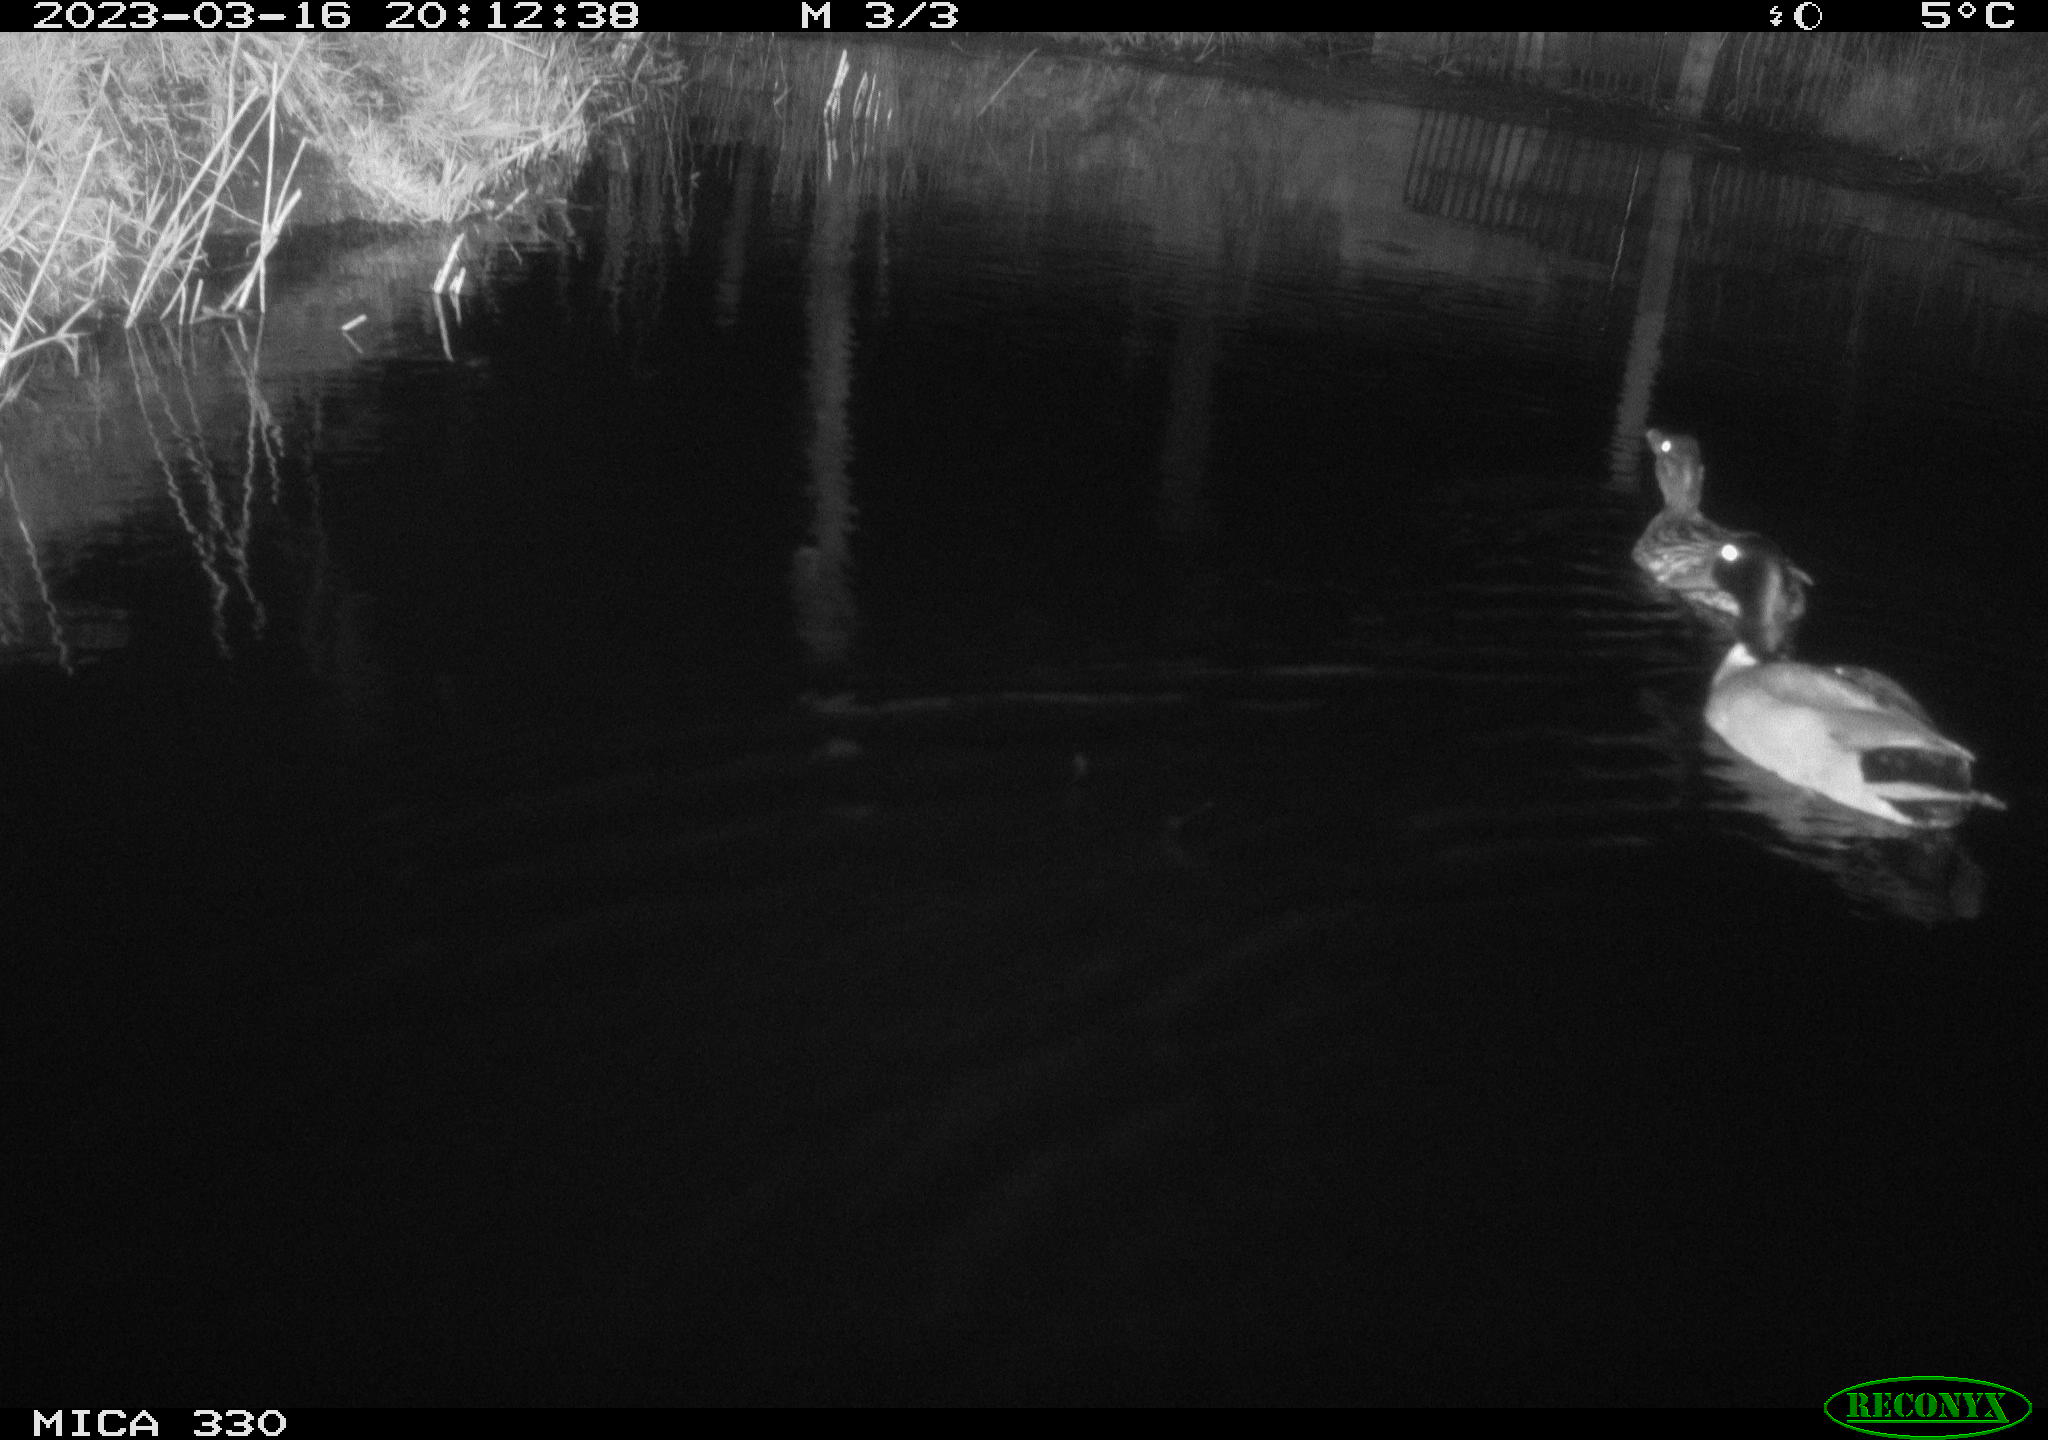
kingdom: Animalia
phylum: Chordata
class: Aves
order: Anseriformes
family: Anatidae
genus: Anas
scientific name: Anas
